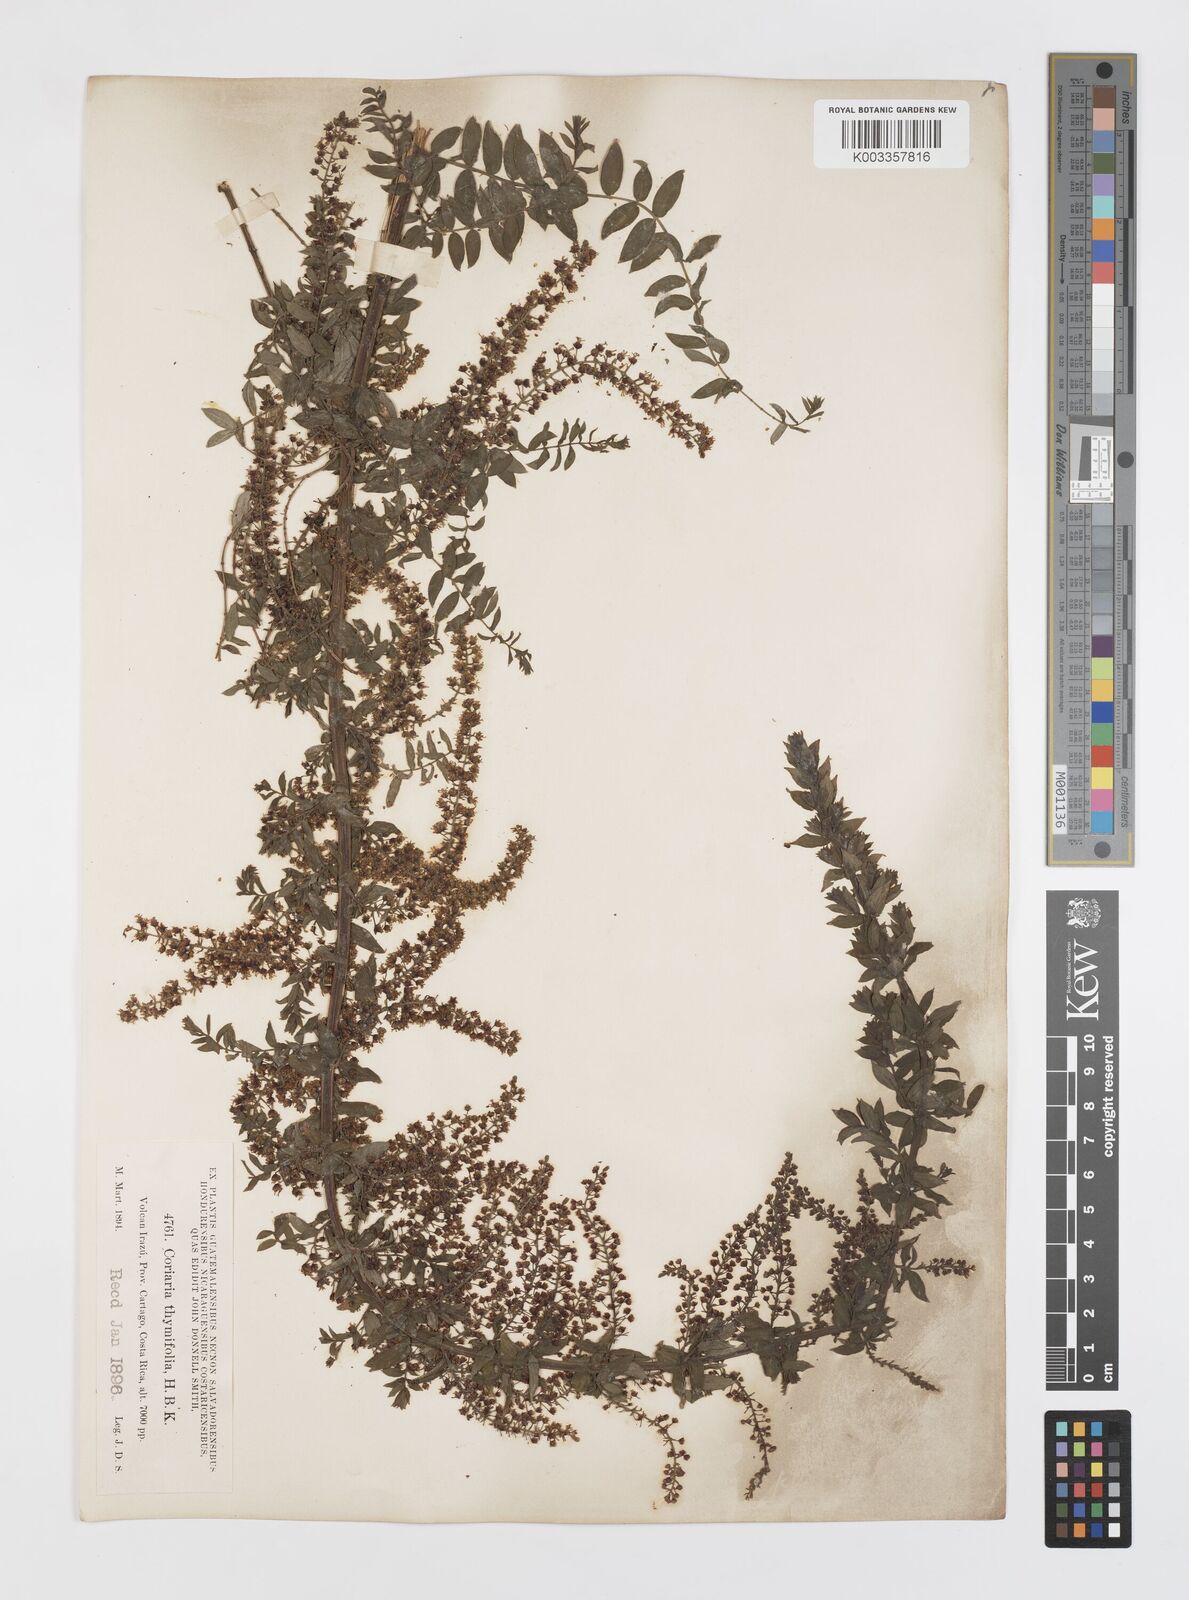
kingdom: Plantae
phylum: Tracheophyta
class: Magnoliopsida
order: Cucurbitales
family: Coriariaceae
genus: Coriaria
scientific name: Coriaria microphylla
